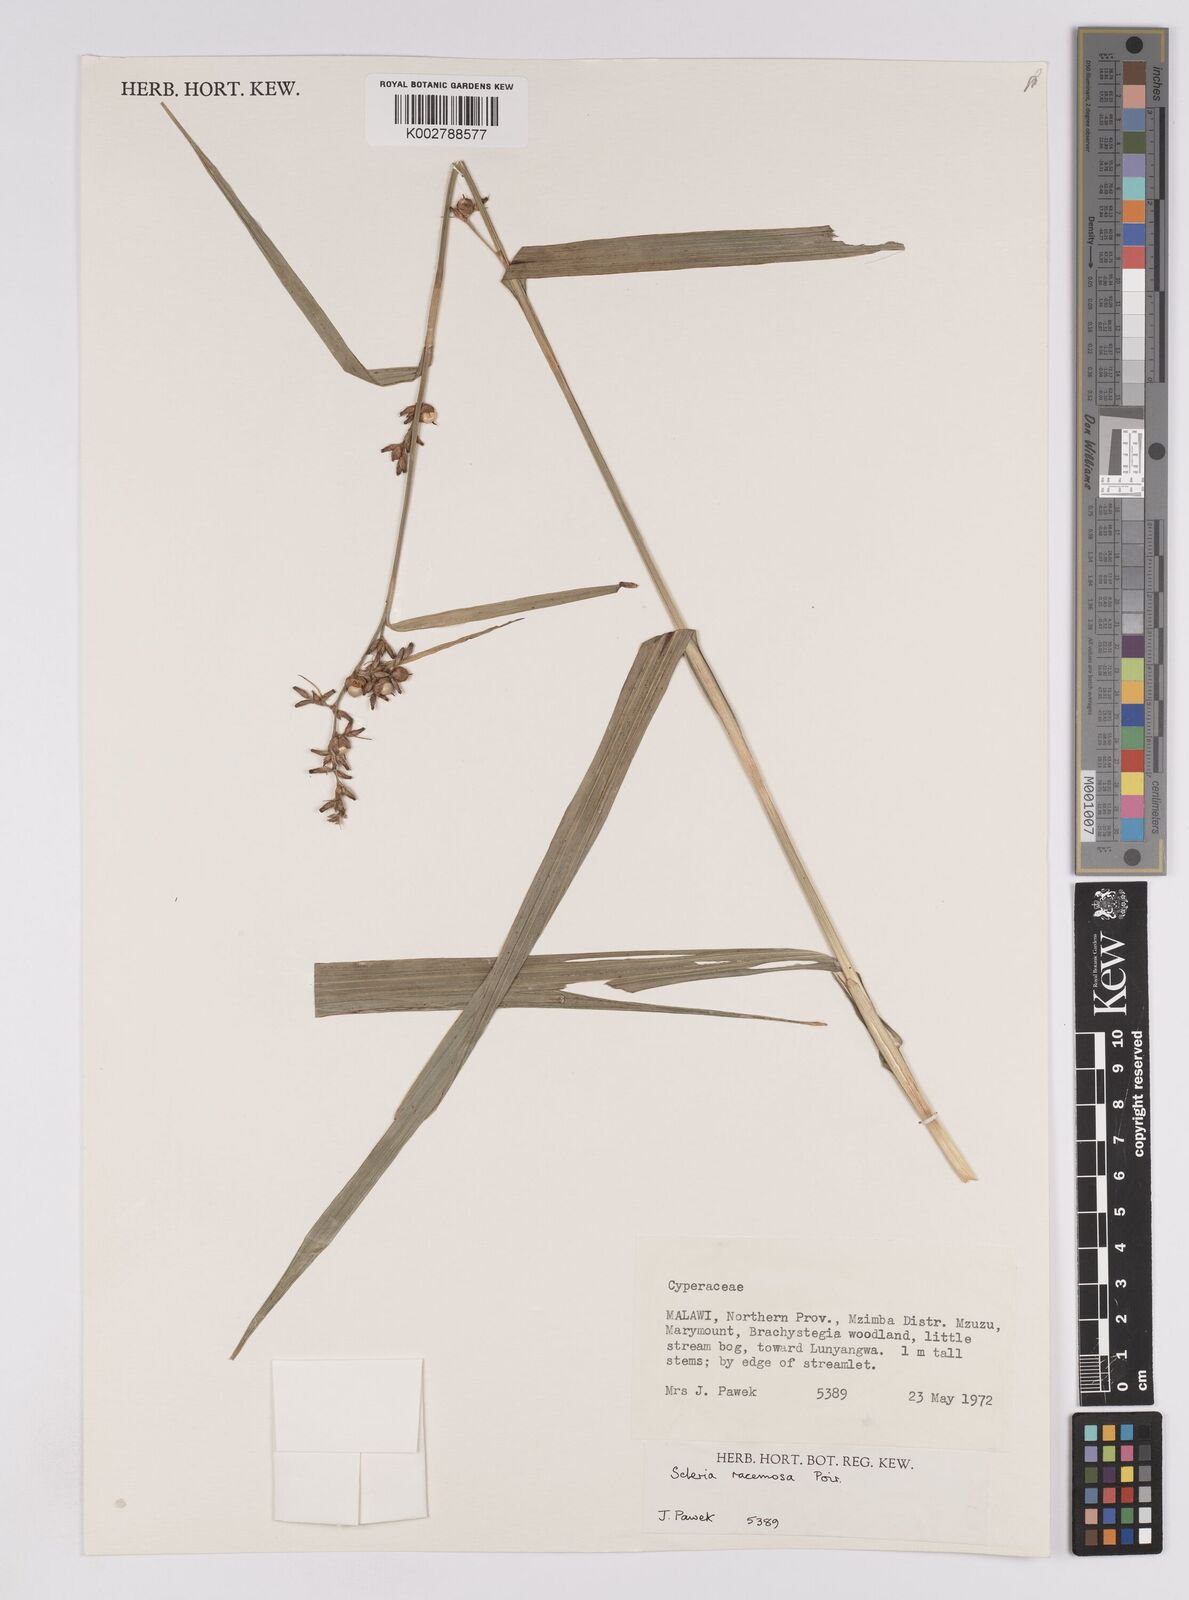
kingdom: Plantae
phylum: Tracheophyta
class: Liliopsida
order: Poales
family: Cyperaceae
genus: Scleria
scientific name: Scleria racemosa
